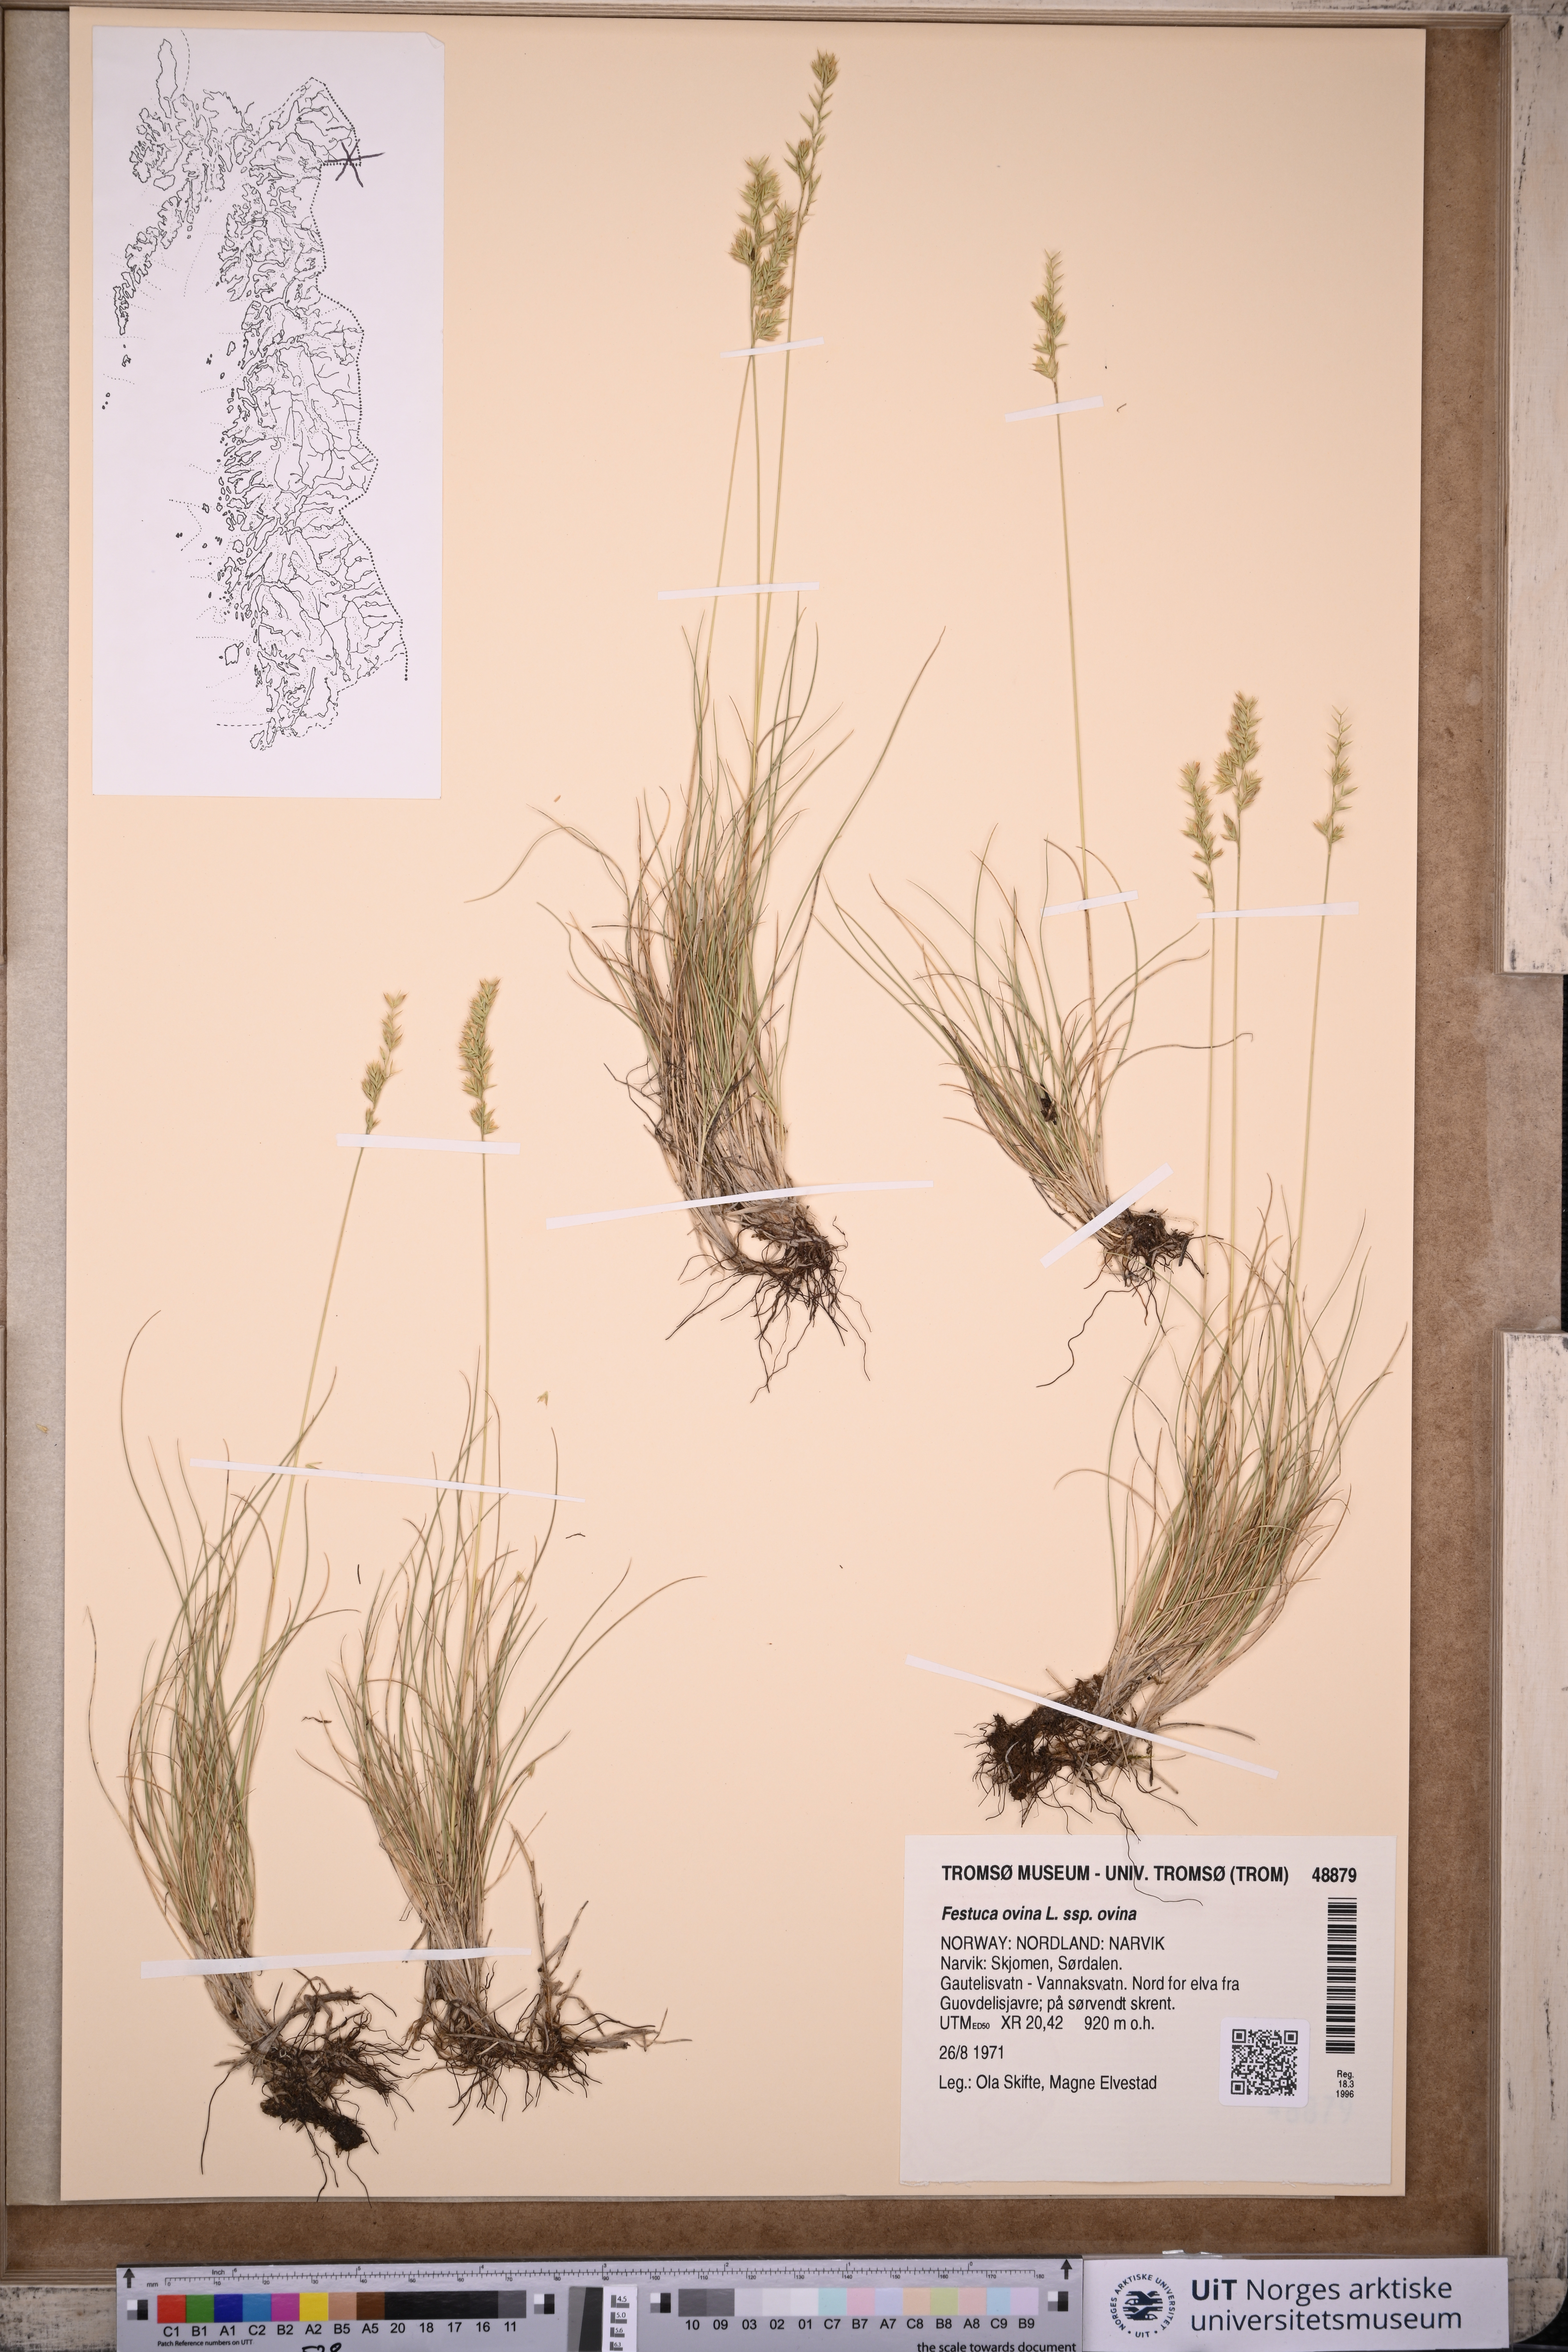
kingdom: Plantae
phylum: Tracheophyta
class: Liliopsida
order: Poales
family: Poaceae
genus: Festuca
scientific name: Festuca ovina
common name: Sheep fescue
